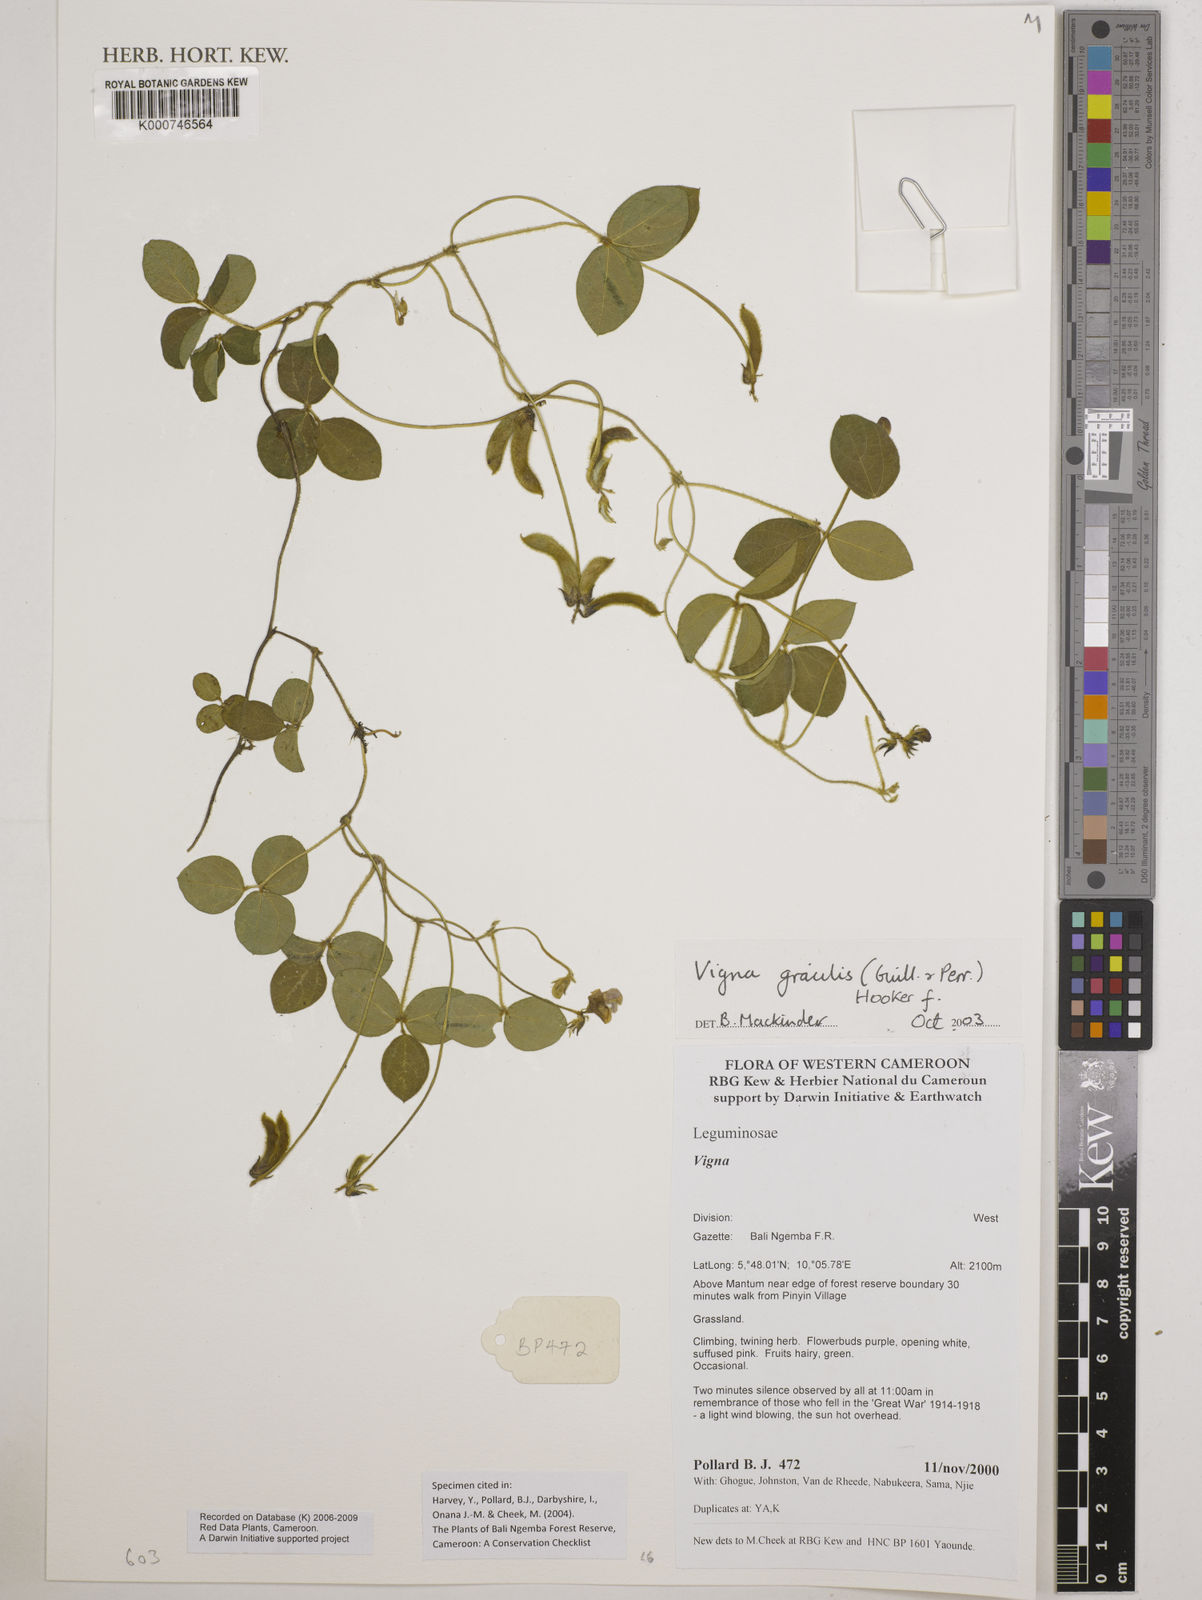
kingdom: Plantae
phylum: Tracheophyta
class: Magnoliopsida
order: Fabales
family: Fabaceae
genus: Vigna
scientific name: Vigna gracilis
